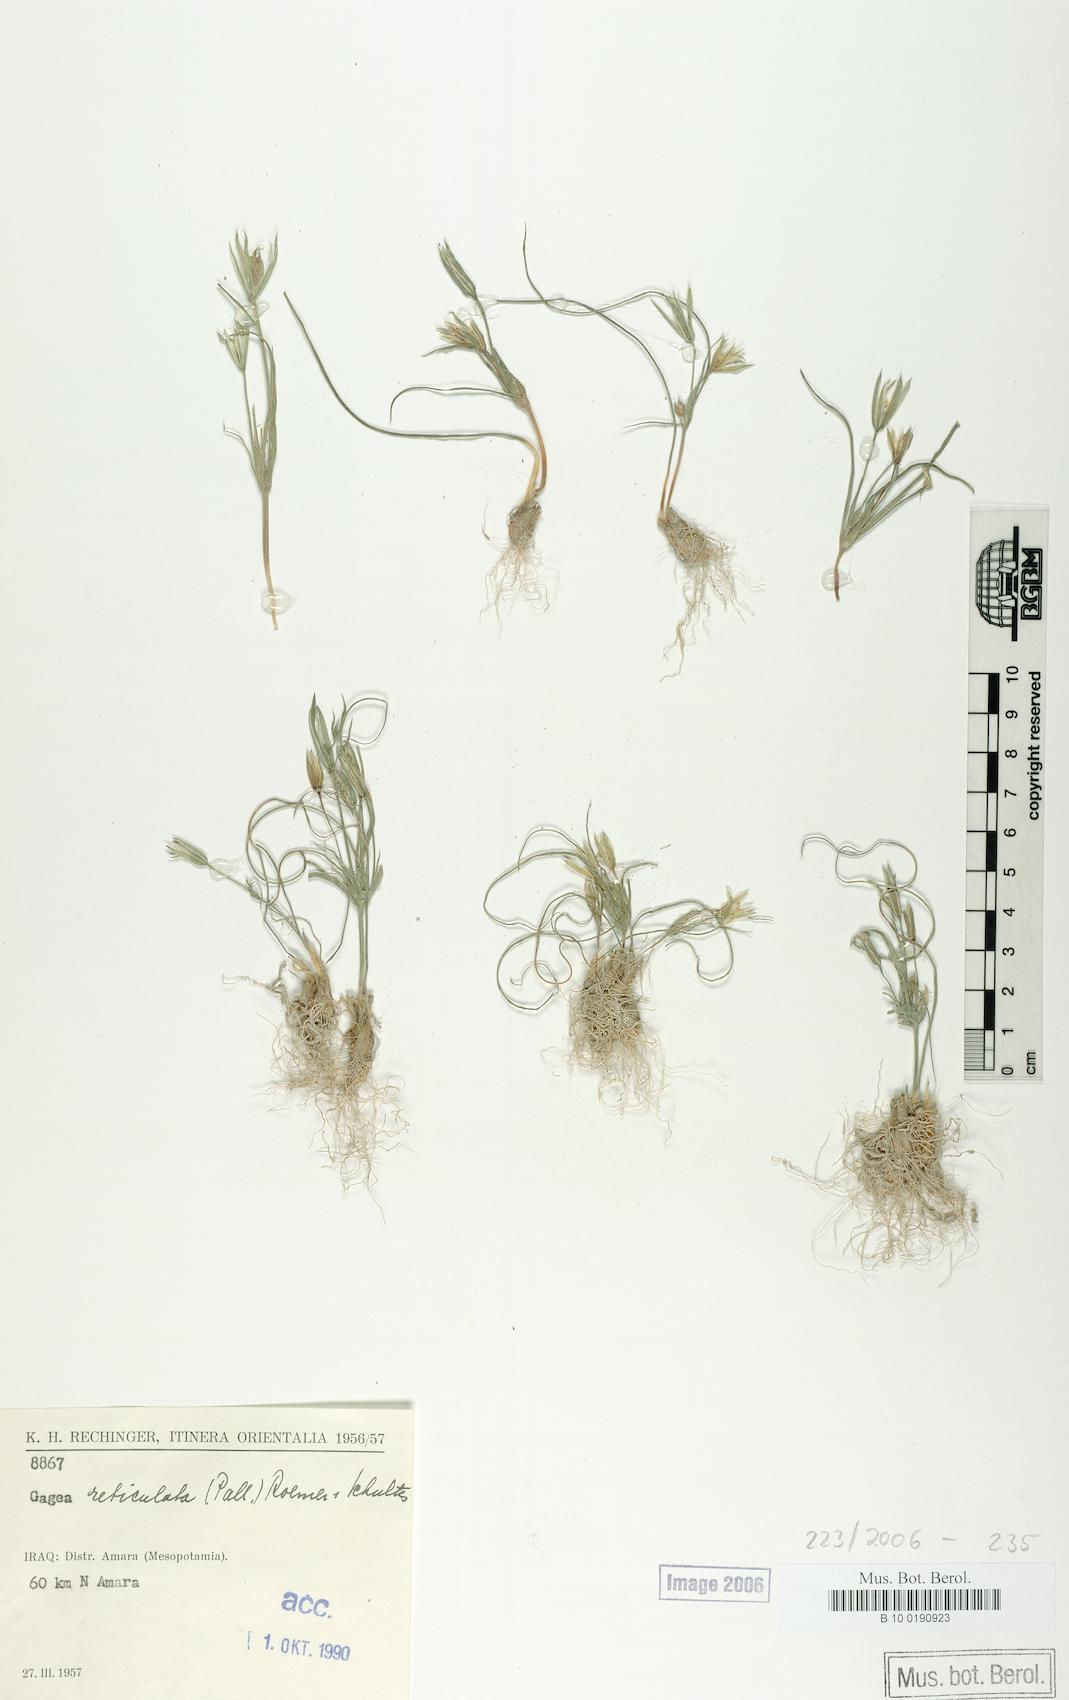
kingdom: Plantae
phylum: Tracheophyta
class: Liliopsida
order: Liliales
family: Liliaceae
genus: Gagea
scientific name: Gagea reticulata
